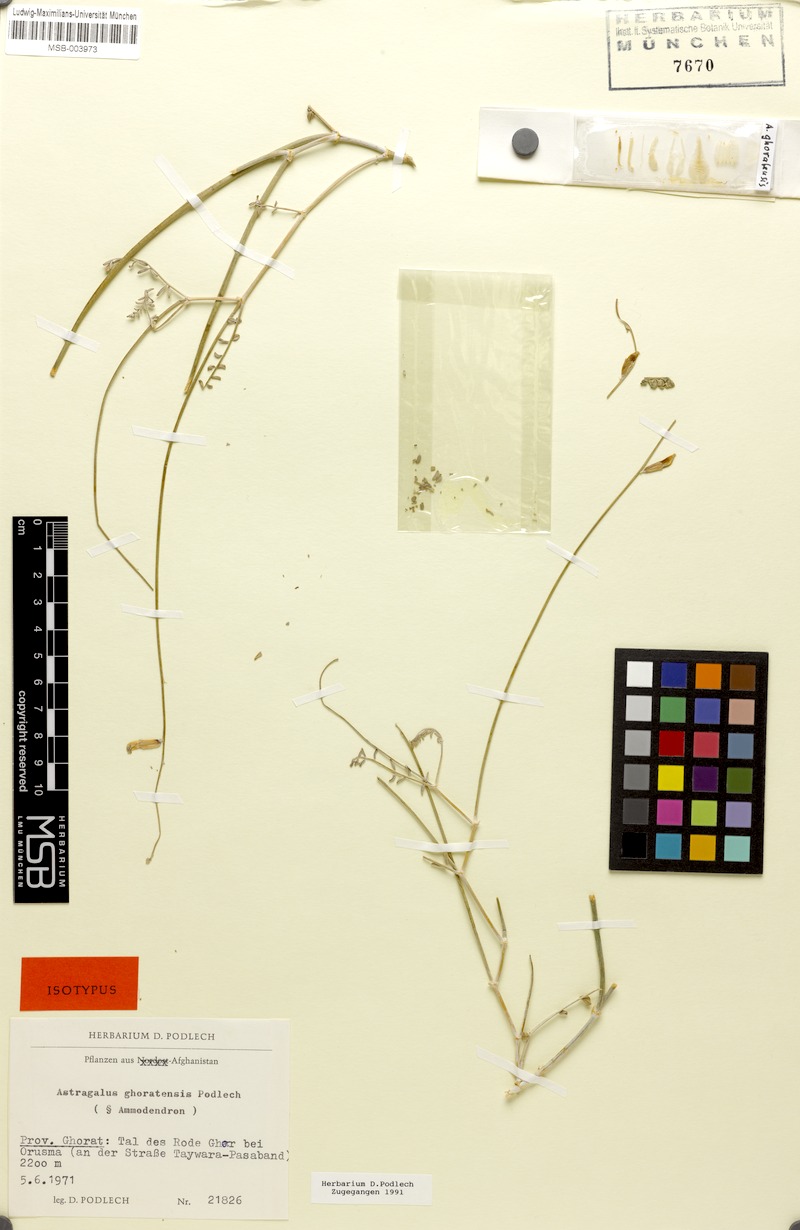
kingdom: Plantae
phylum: Tracheophyta
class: Magnoliopsida
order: Fabales
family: Fabaceae
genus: Astragalus
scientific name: Astragalus ghoratensis
